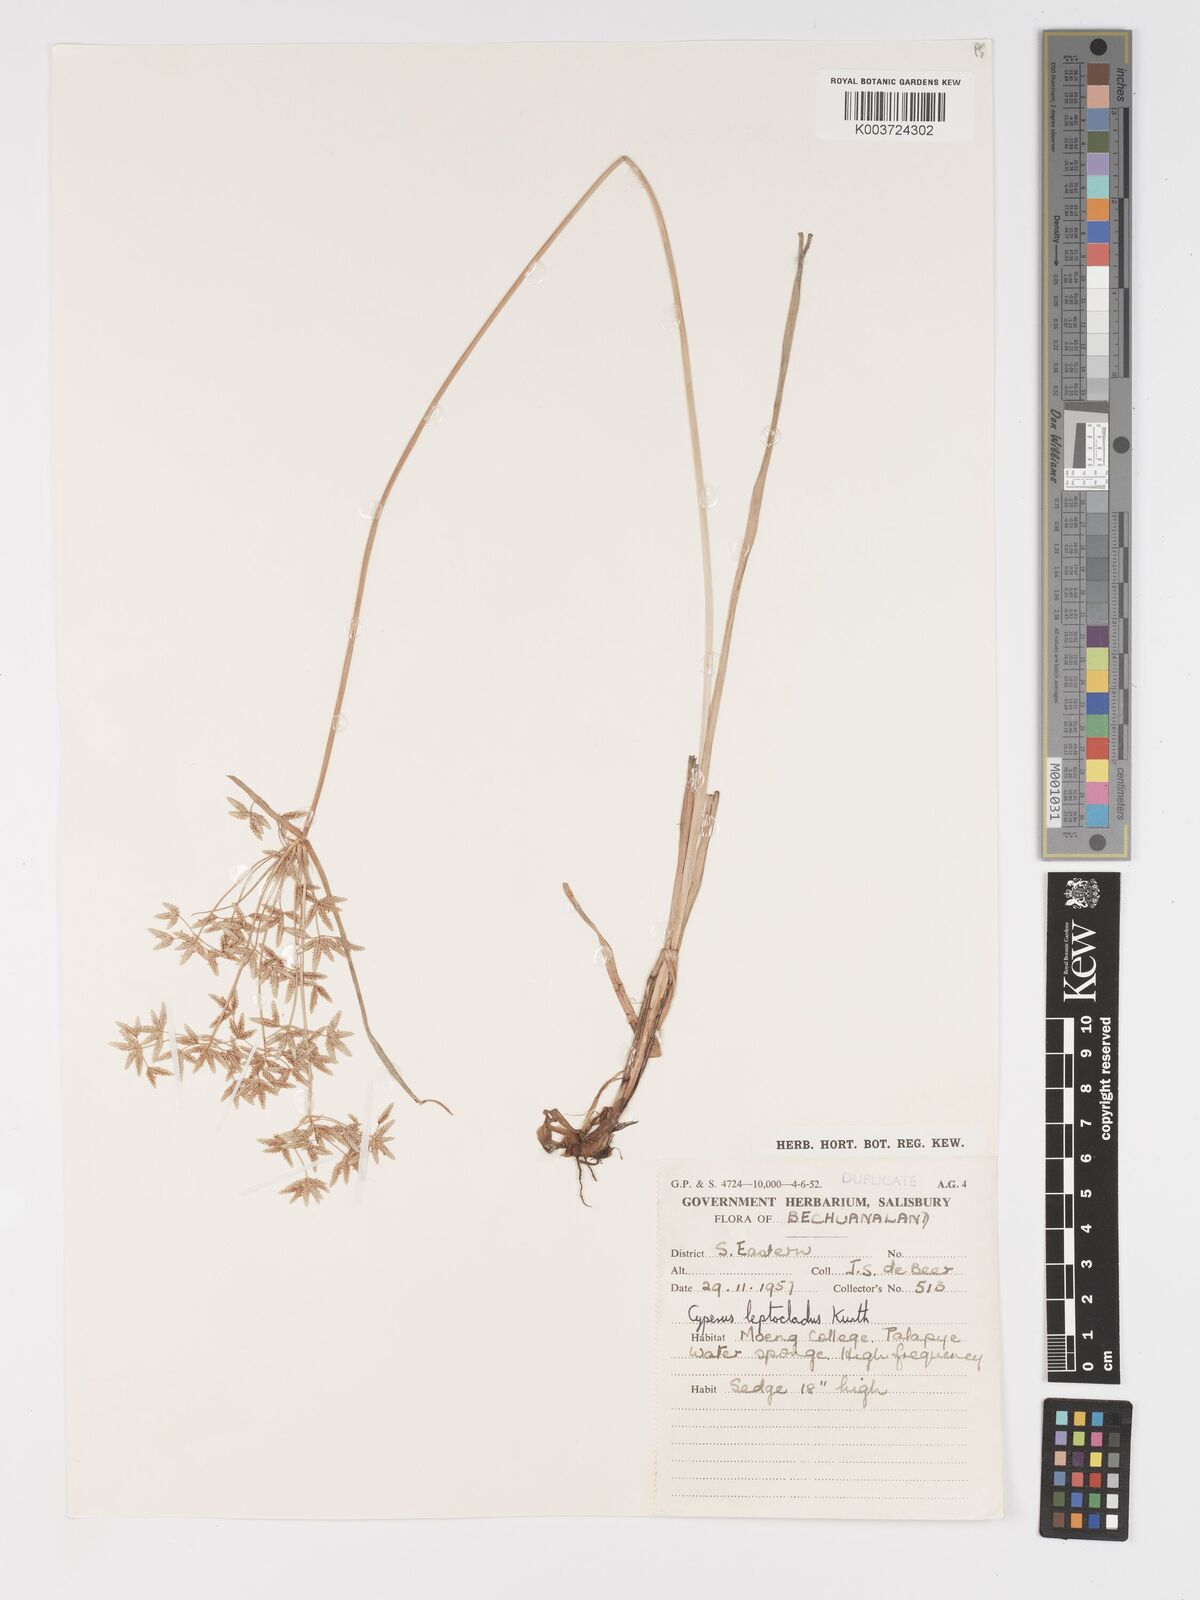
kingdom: Plantae
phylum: Tracheophyta
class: Liliopsida
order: Poales
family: Cyperaceae
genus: Cyperus
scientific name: Cyperus
